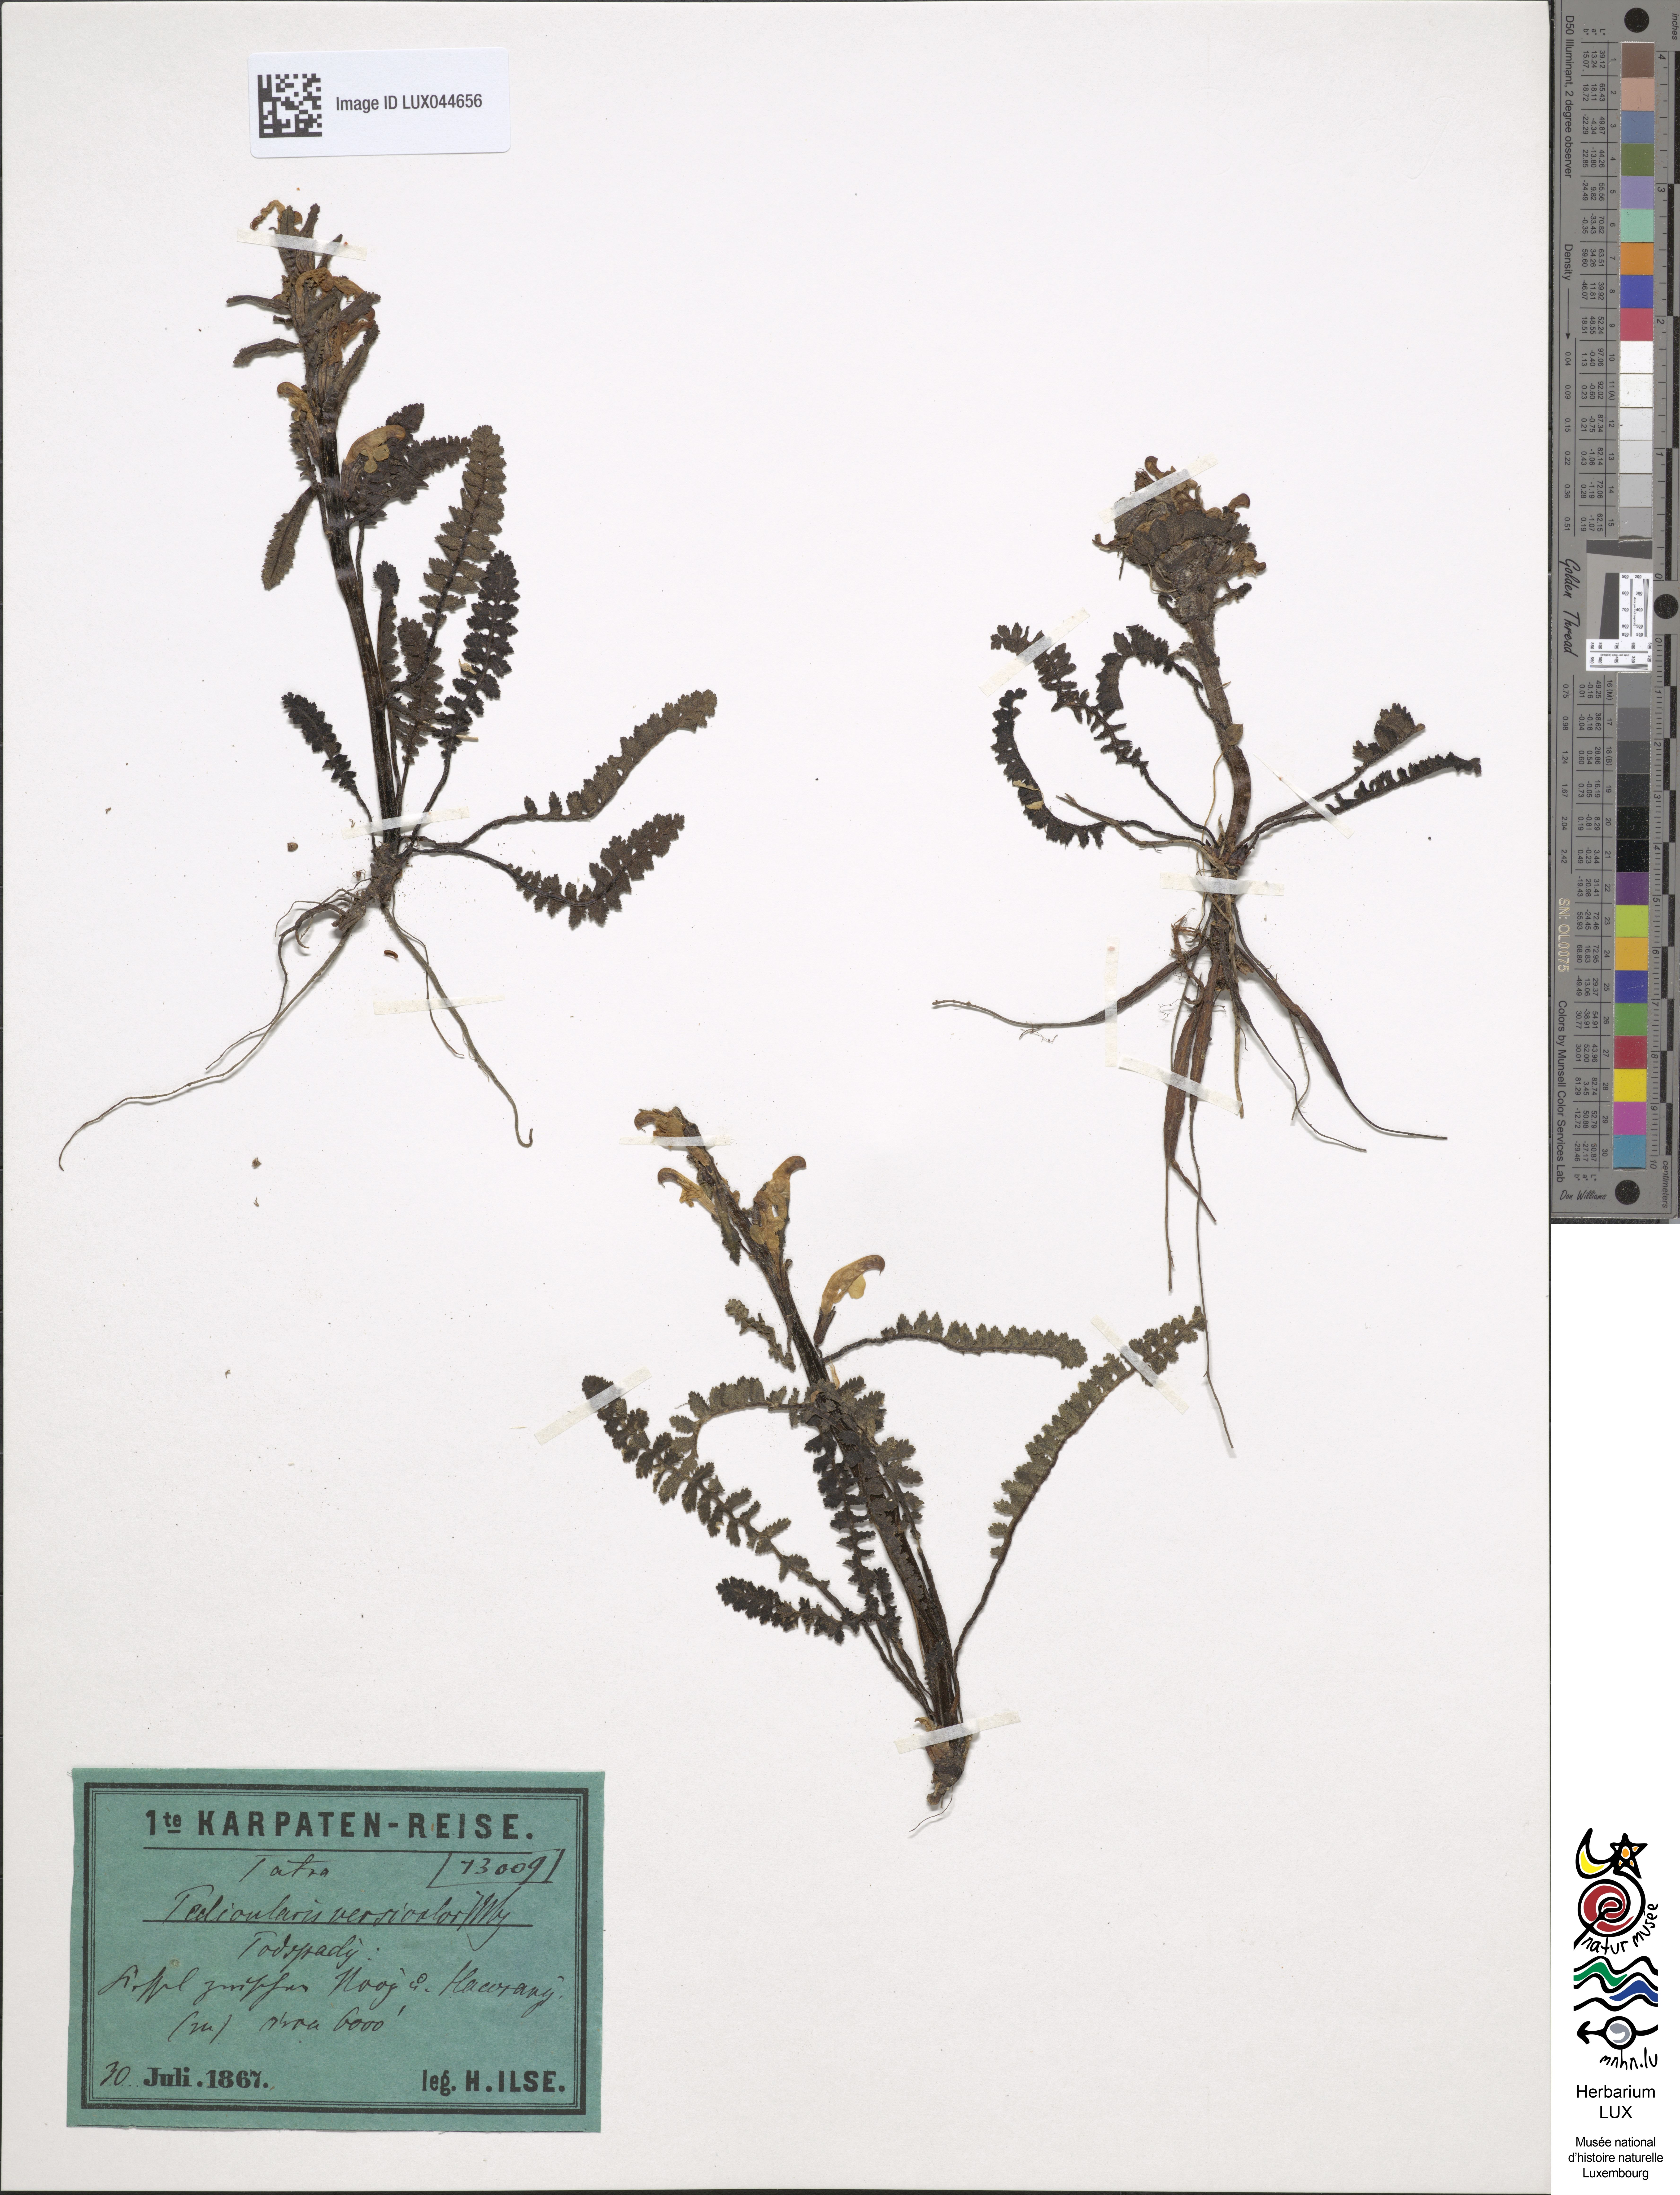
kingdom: Plantae
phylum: Tracheophyta
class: Magnoliopsida
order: Lamiales
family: Orobanchaceae
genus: Pedicularis
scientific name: Pedicularis oederi
